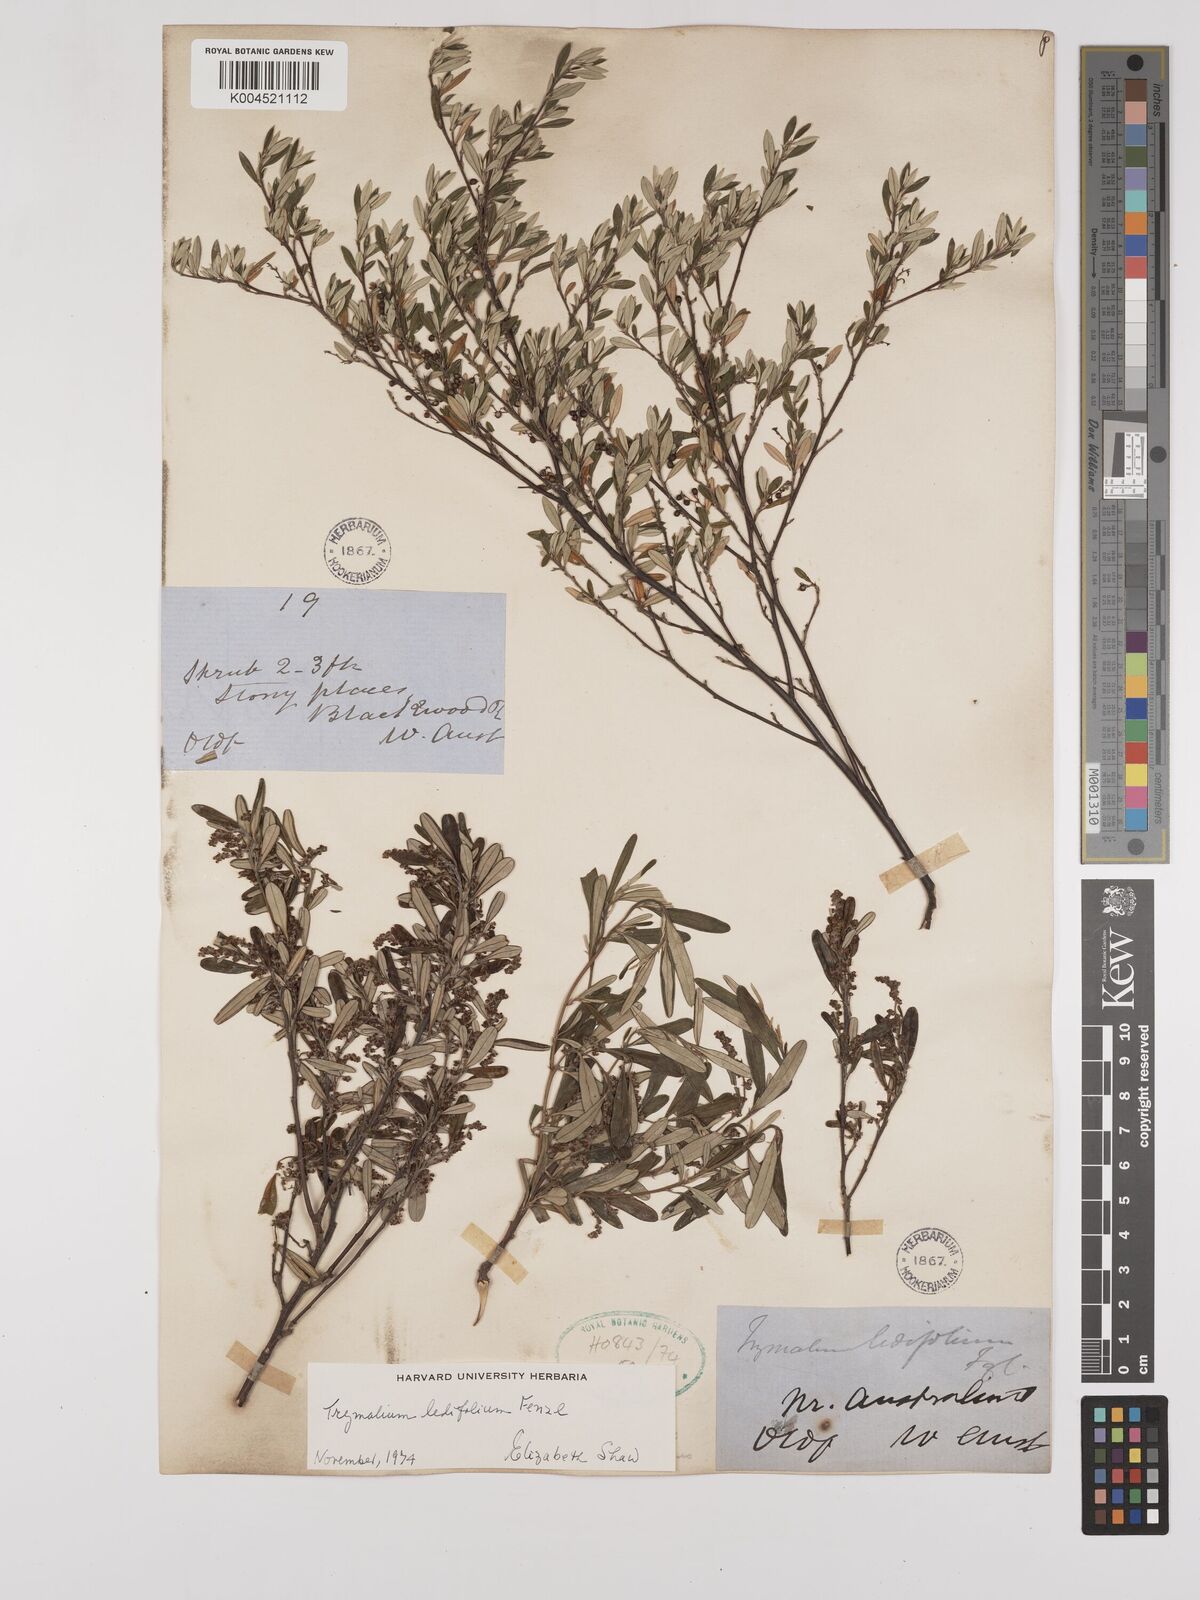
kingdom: Plantae
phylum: Tracheophyta
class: Magnoliopsida
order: Rosales
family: Rhamnaceae
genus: Trymalium
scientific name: Trymalium ledifolium
